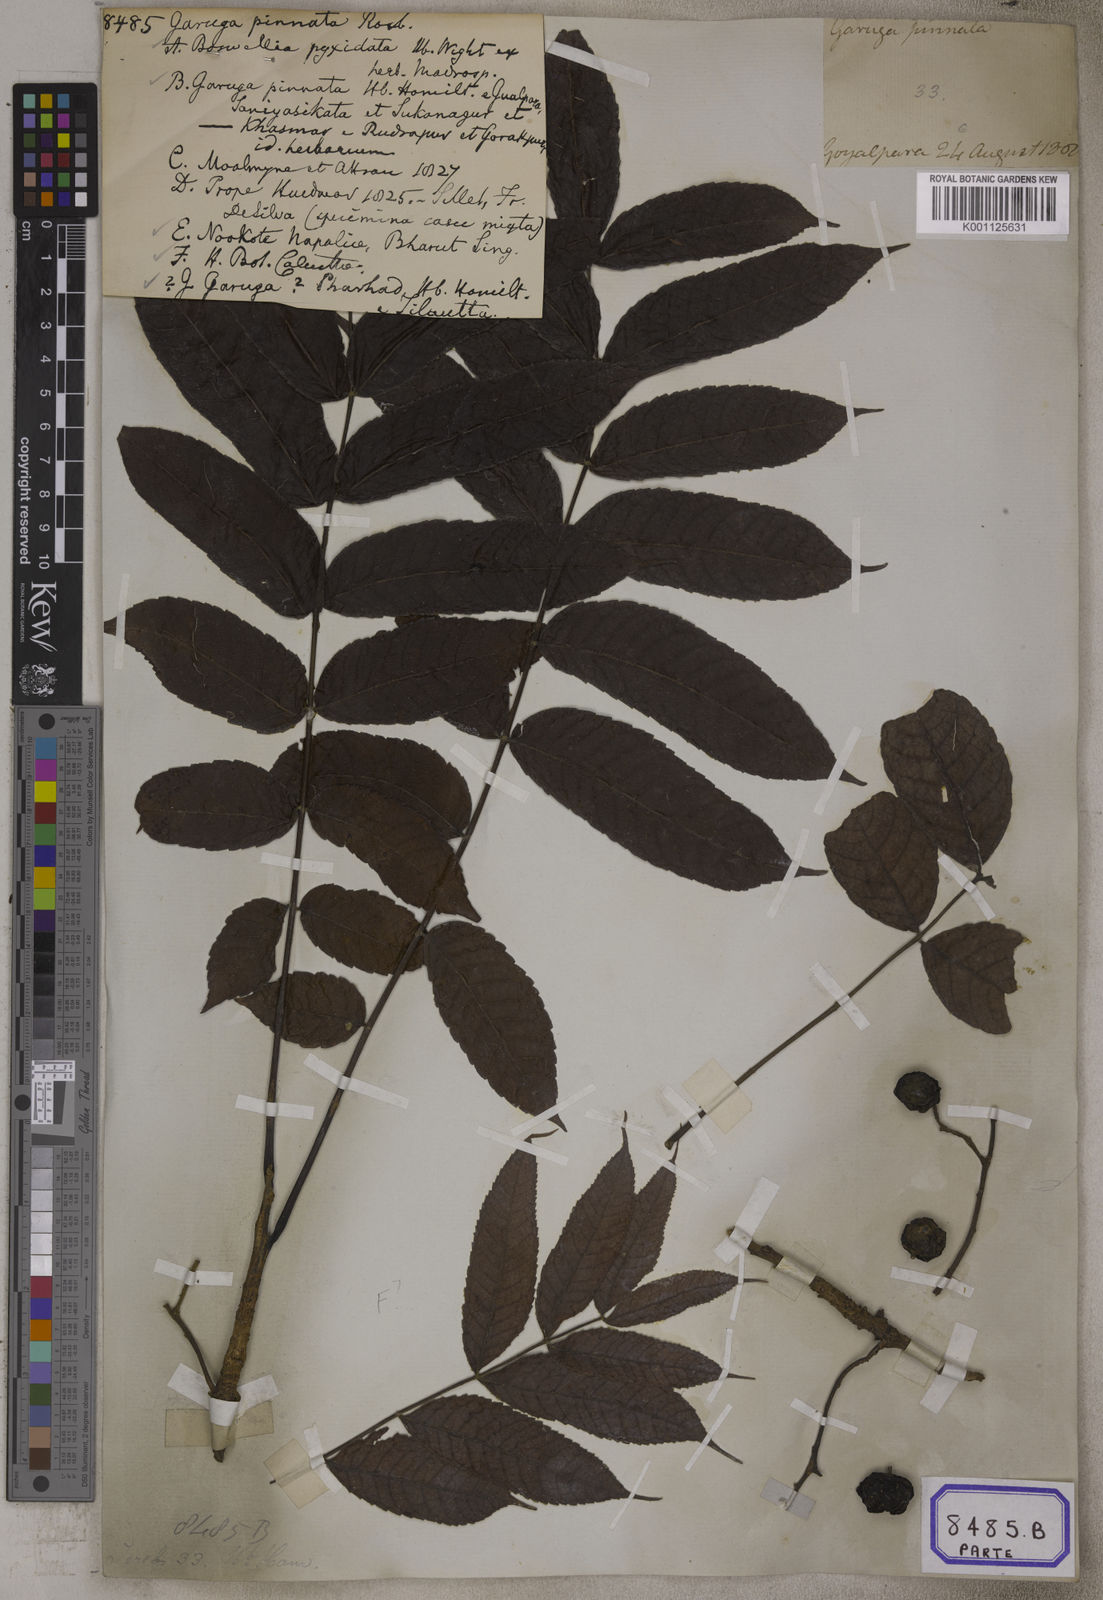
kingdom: Plantae
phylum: Tracheophyta
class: Magnoliopsida
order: Sapindales
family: Burseraceae
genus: Garuga
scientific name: Garuga pinnata
